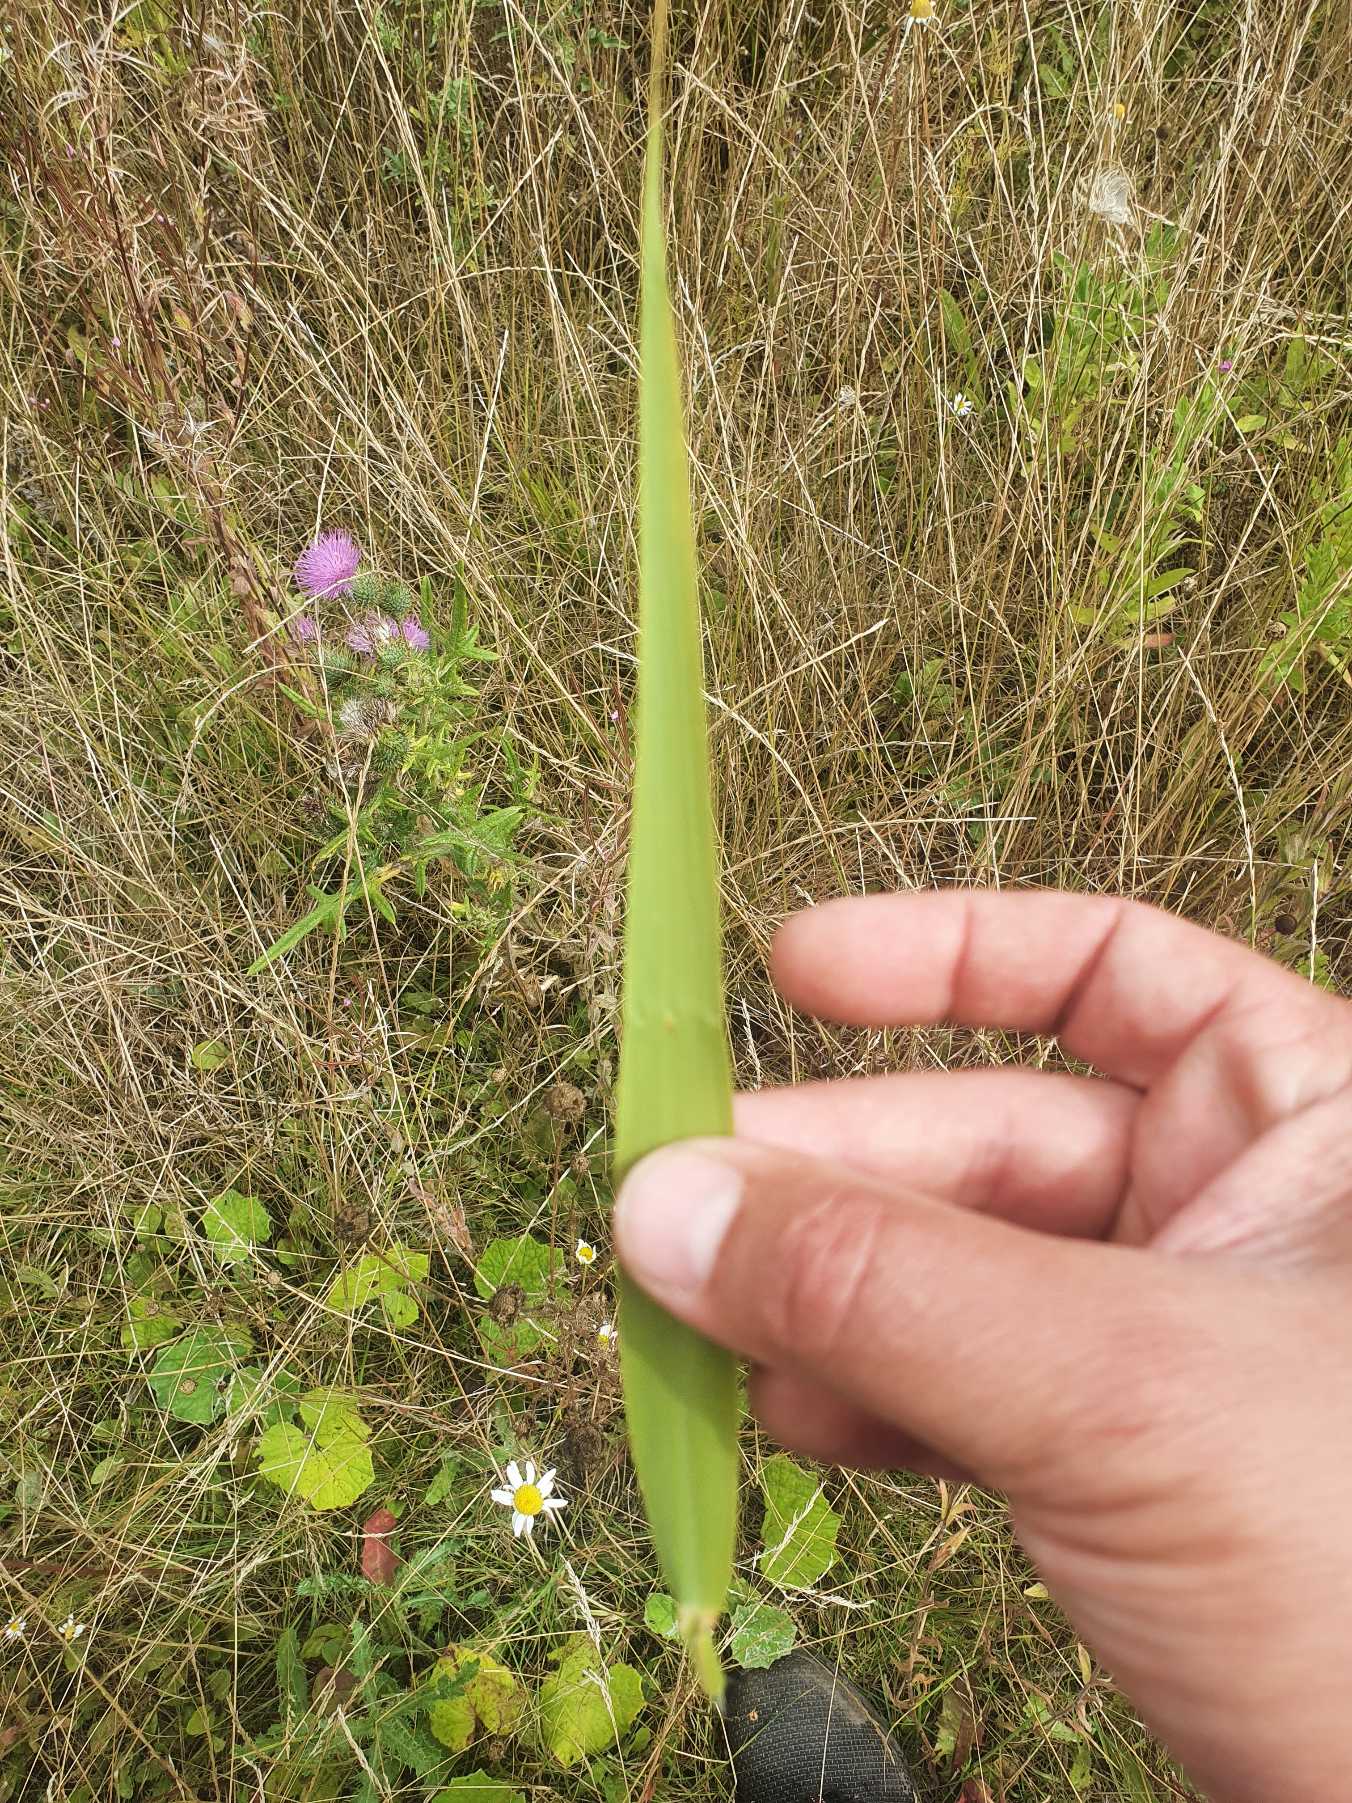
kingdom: Plantae
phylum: Tracheophyta
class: Liliopsida
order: Poales
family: Poaceae
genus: Phragmites
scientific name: Phragmites australis
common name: Tagrør
